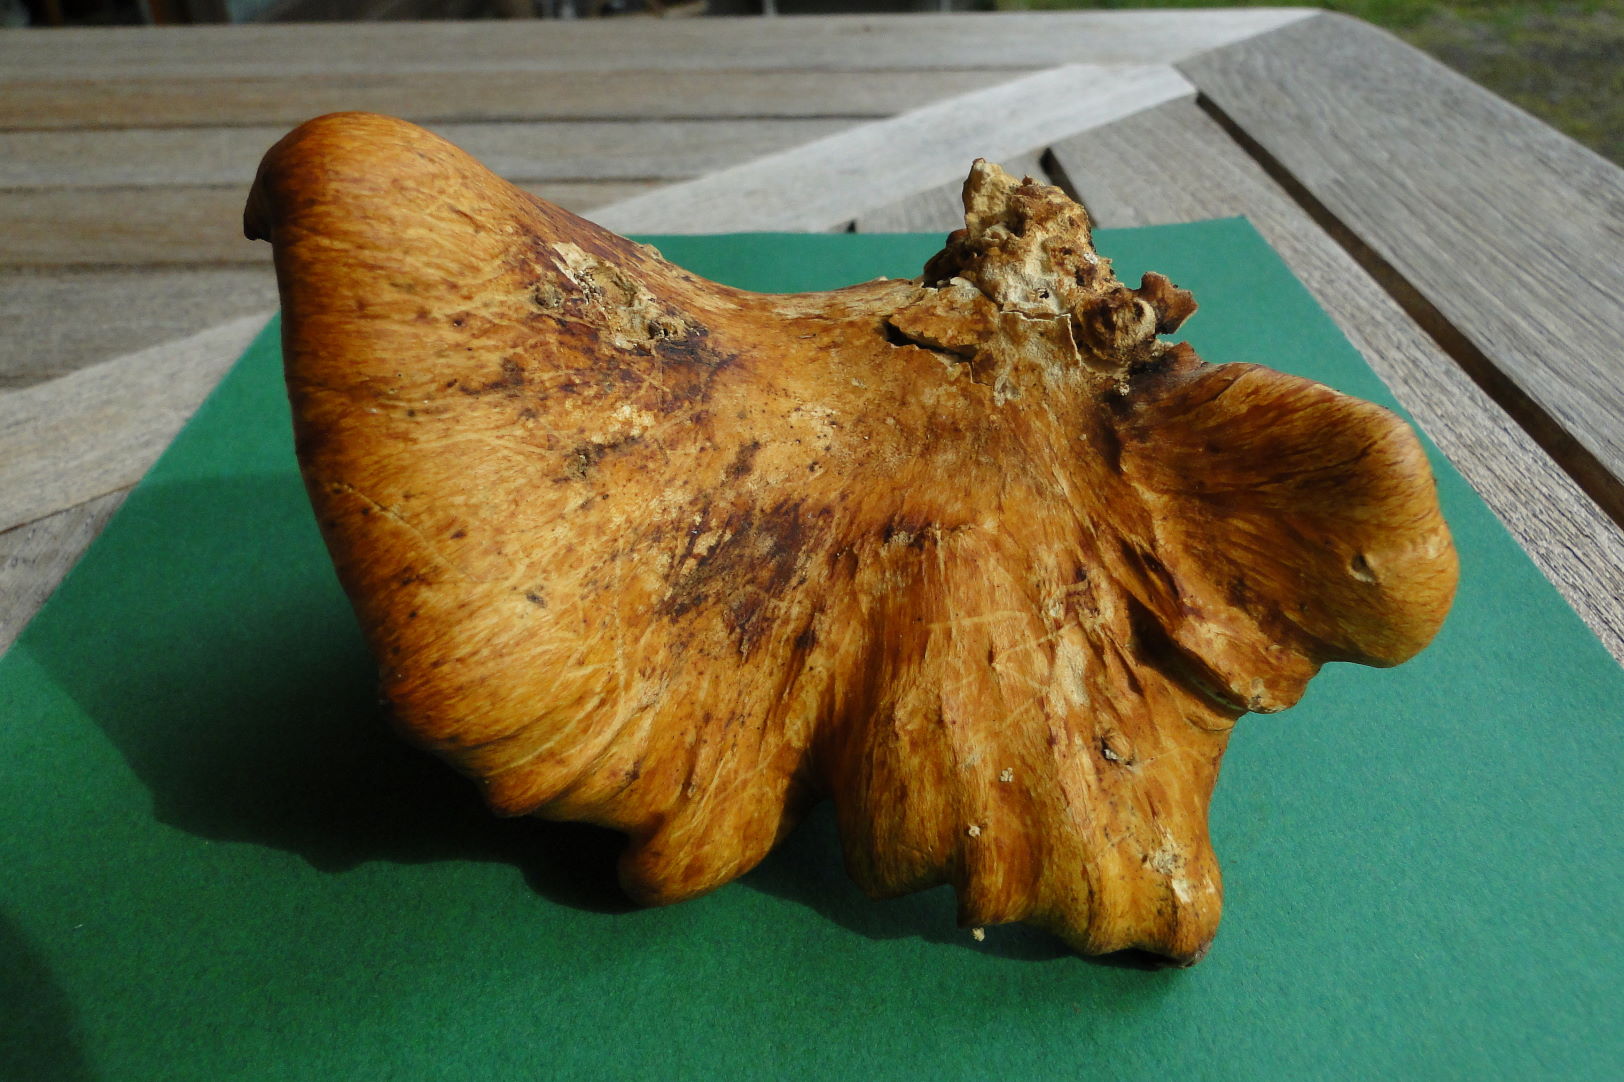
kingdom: Fungi
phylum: Basidiomycota
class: Agaricomycetes
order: Polyporales
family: Polyporaceae
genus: Cerioporus
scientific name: Cerioporus varius
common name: foranderlig stilkporesvamp
